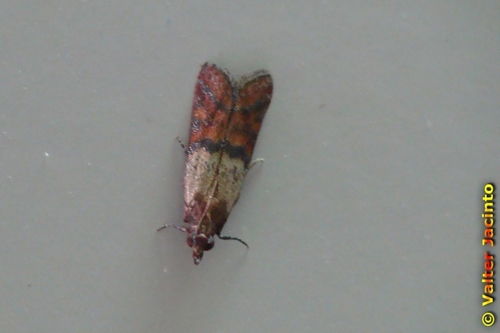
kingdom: Animalia
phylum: Arthropoda
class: Insecta
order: Lepidoptera
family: Pyralidae
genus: Plodia
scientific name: Plodia interpunctella
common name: Indian meal moth
